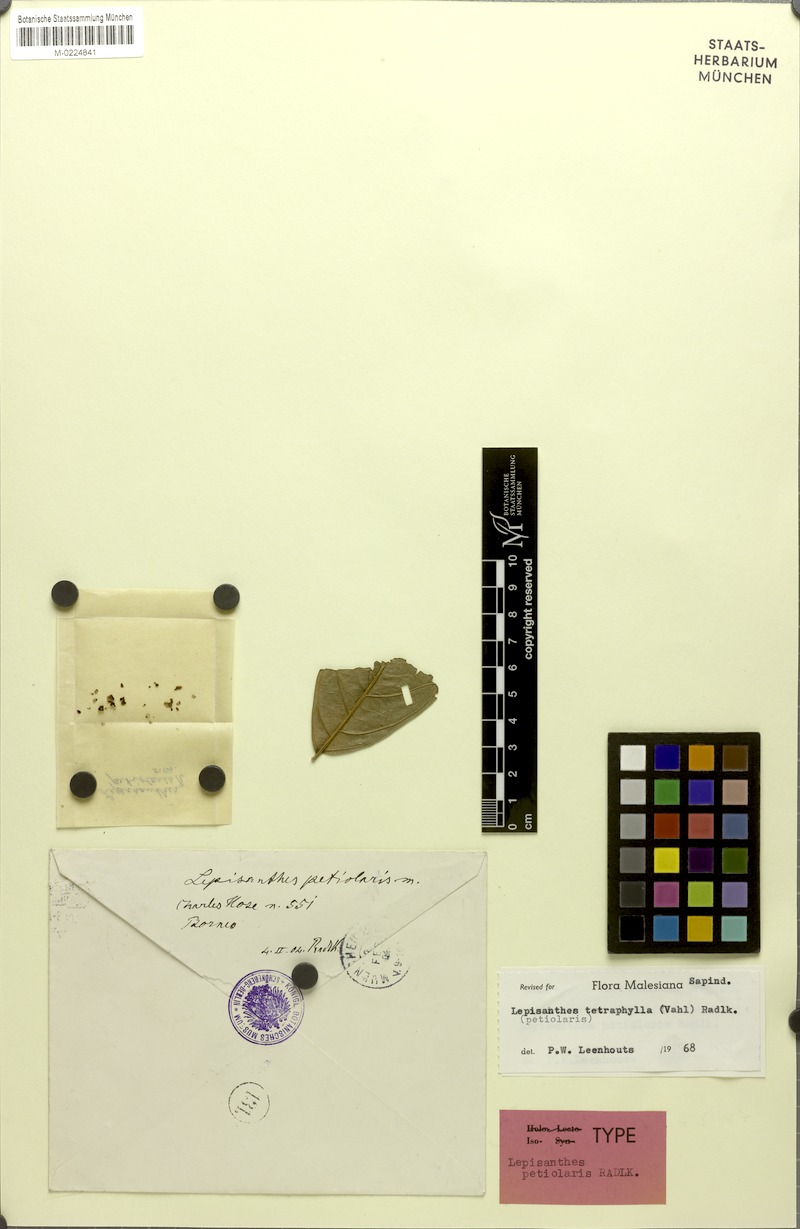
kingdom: Plantae
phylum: Tracheophyta
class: Magnoliopsida
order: Sapindales
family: Sapindaceae
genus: Lepisanthes
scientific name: Lepisanthes petiolaris
